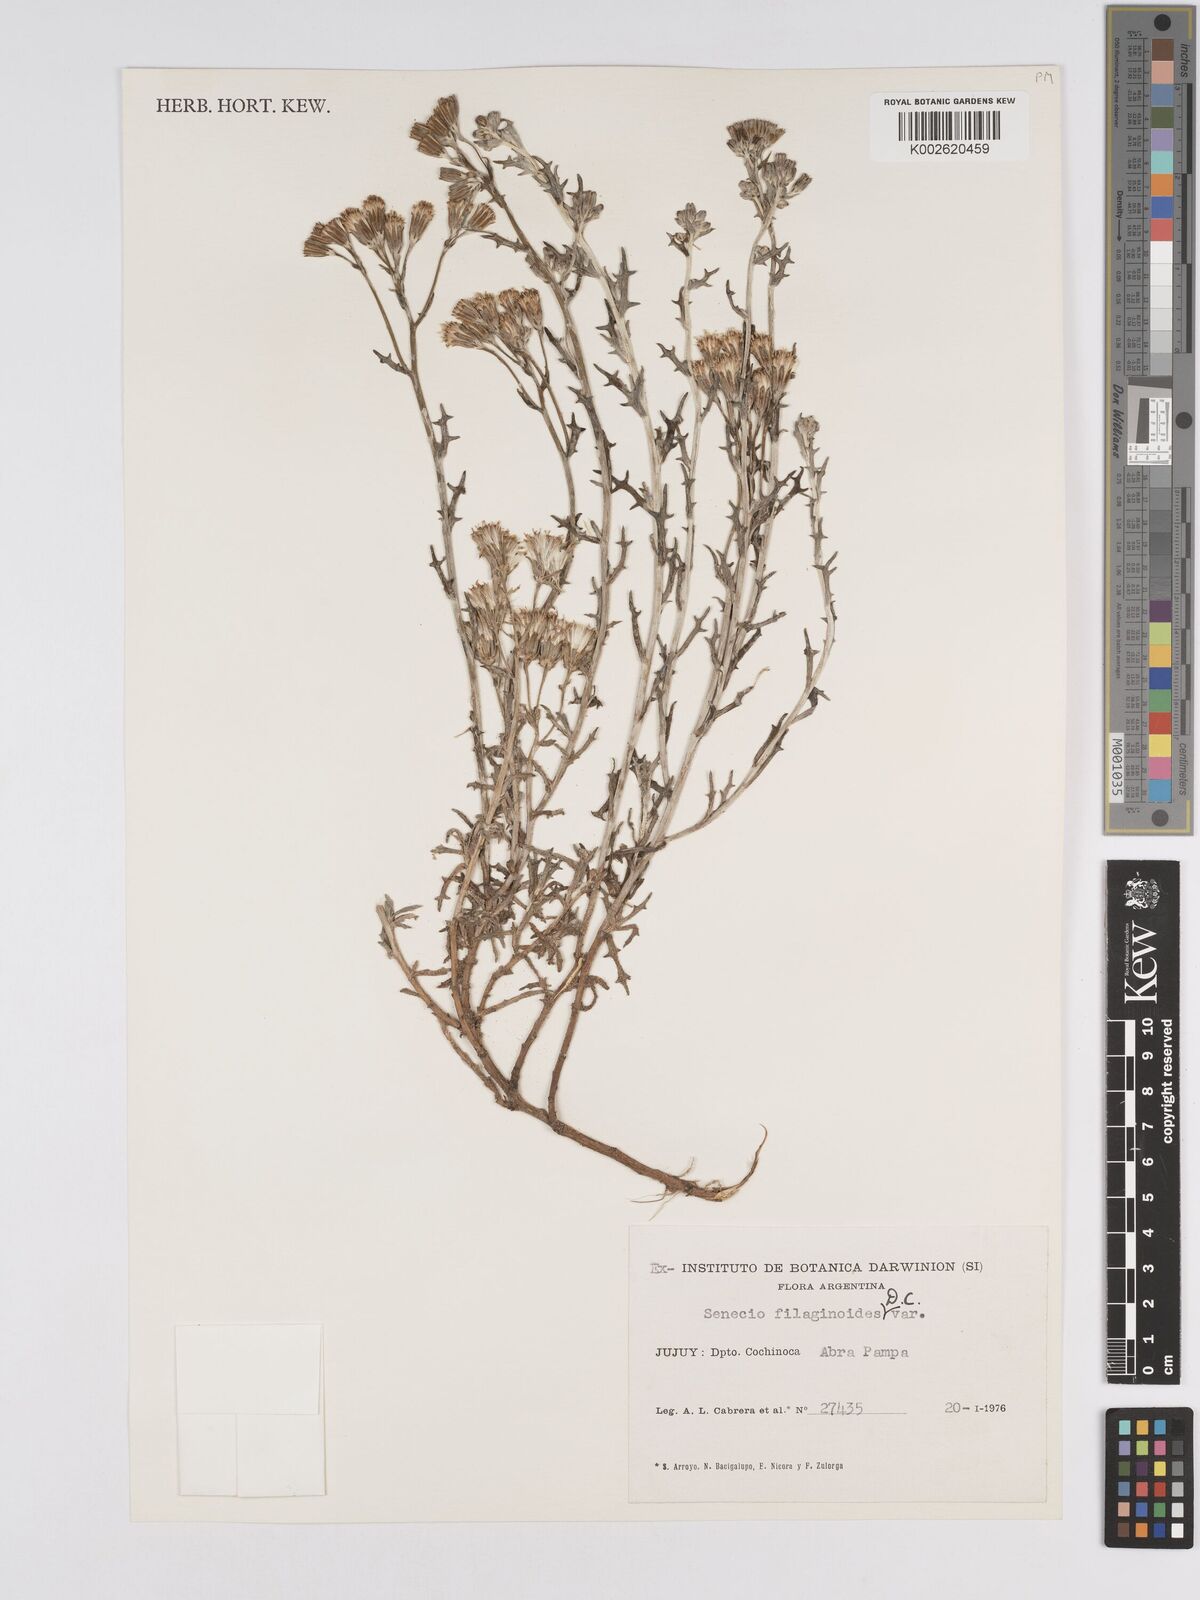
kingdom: Plantae
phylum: Tracheophyta
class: Magnoliopsida
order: Asterales
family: Asteraceae
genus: Senecio
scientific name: Senecio filaginoides
